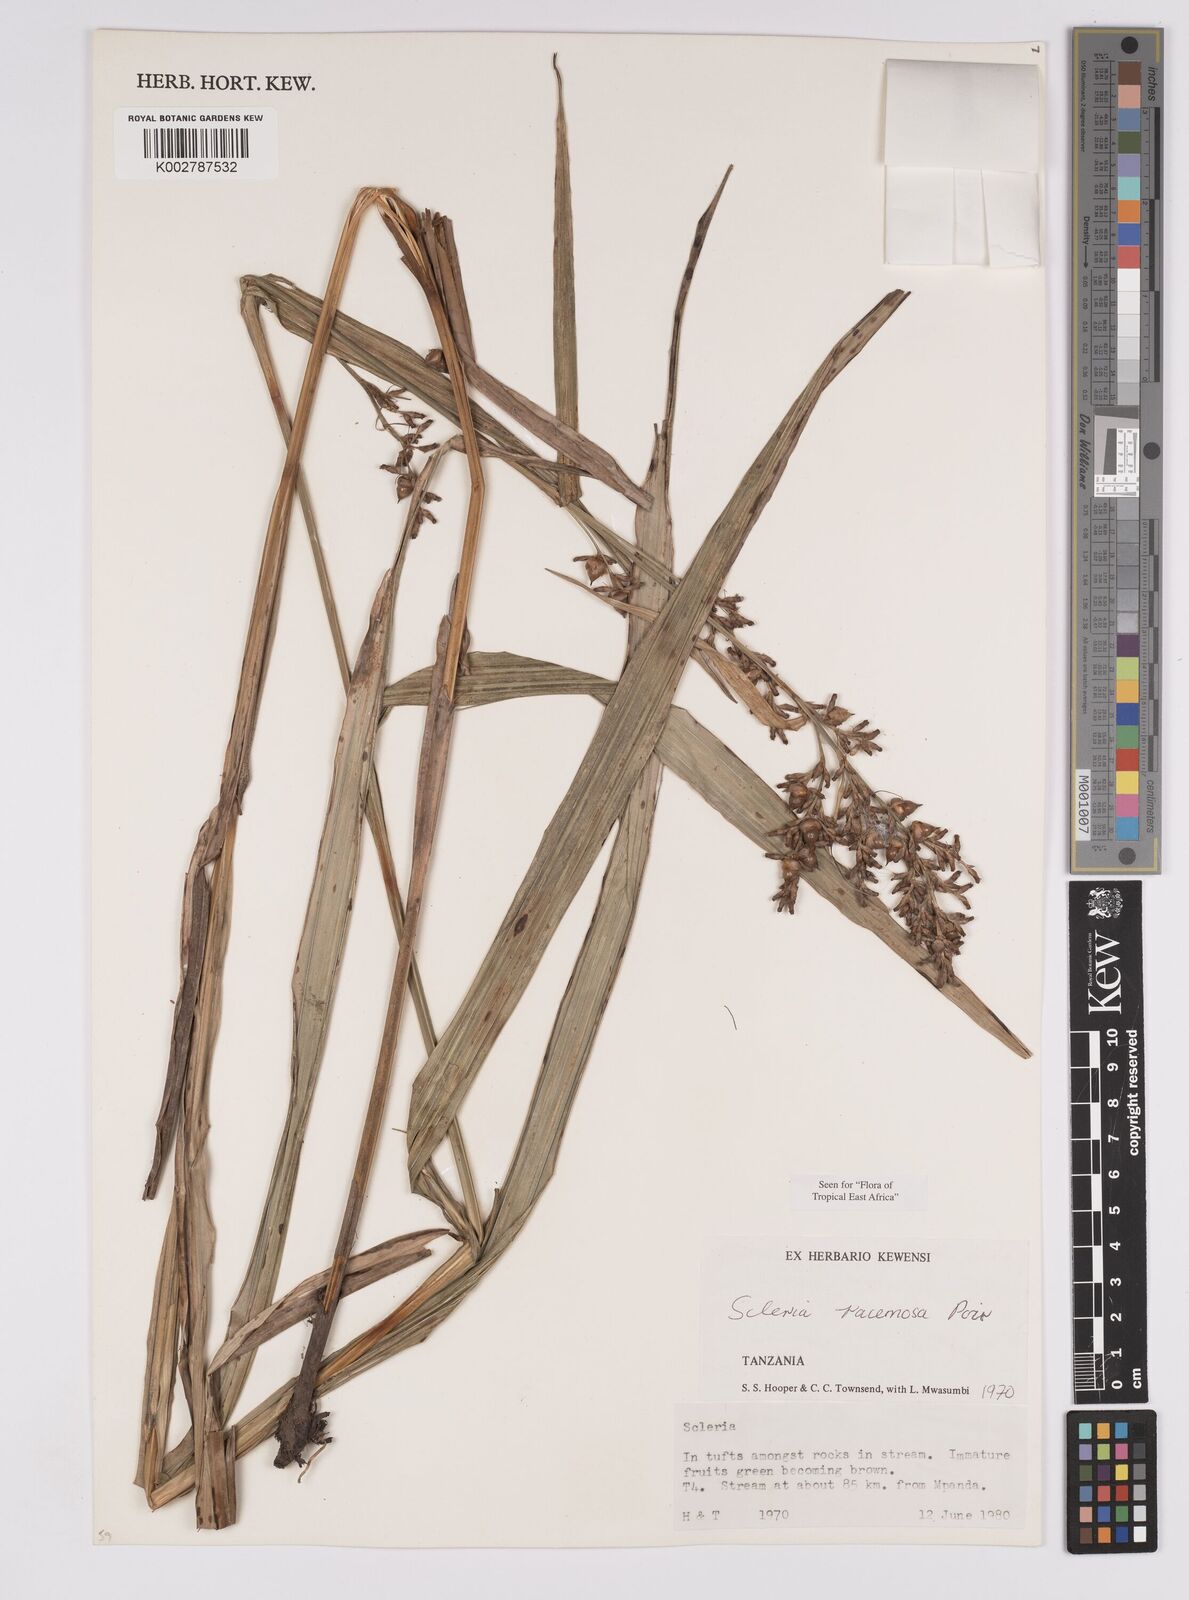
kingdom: Plantae
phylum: Tracheophyta
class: Liliopsida
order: Poales
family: Cyperaceae
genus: Scleria
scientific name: Scleria racemosa
